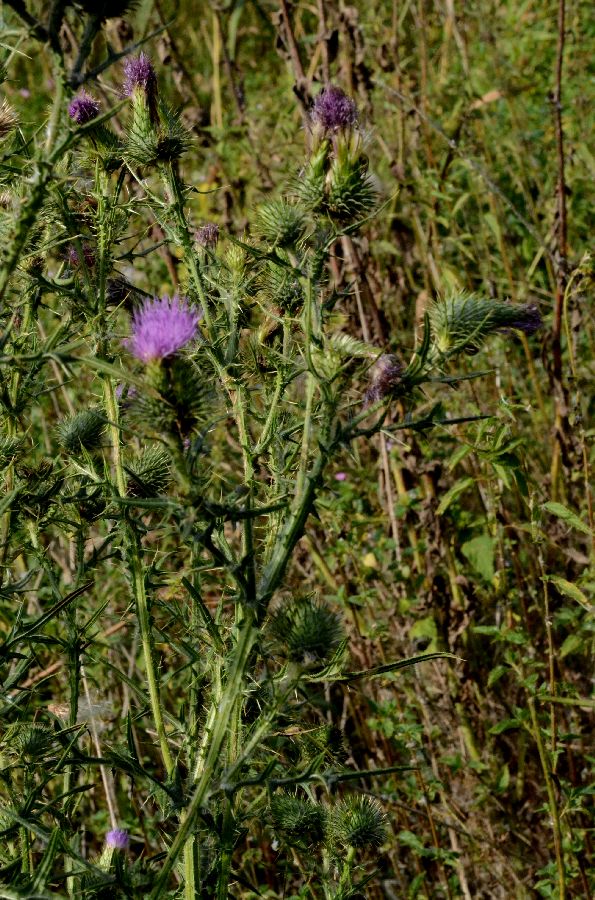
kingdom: Plantae
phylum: Tracheophyta
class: Magnoliopsida
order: Asterales
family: Asteraceae
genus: Cirsium
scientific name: Cirsium vulgare
